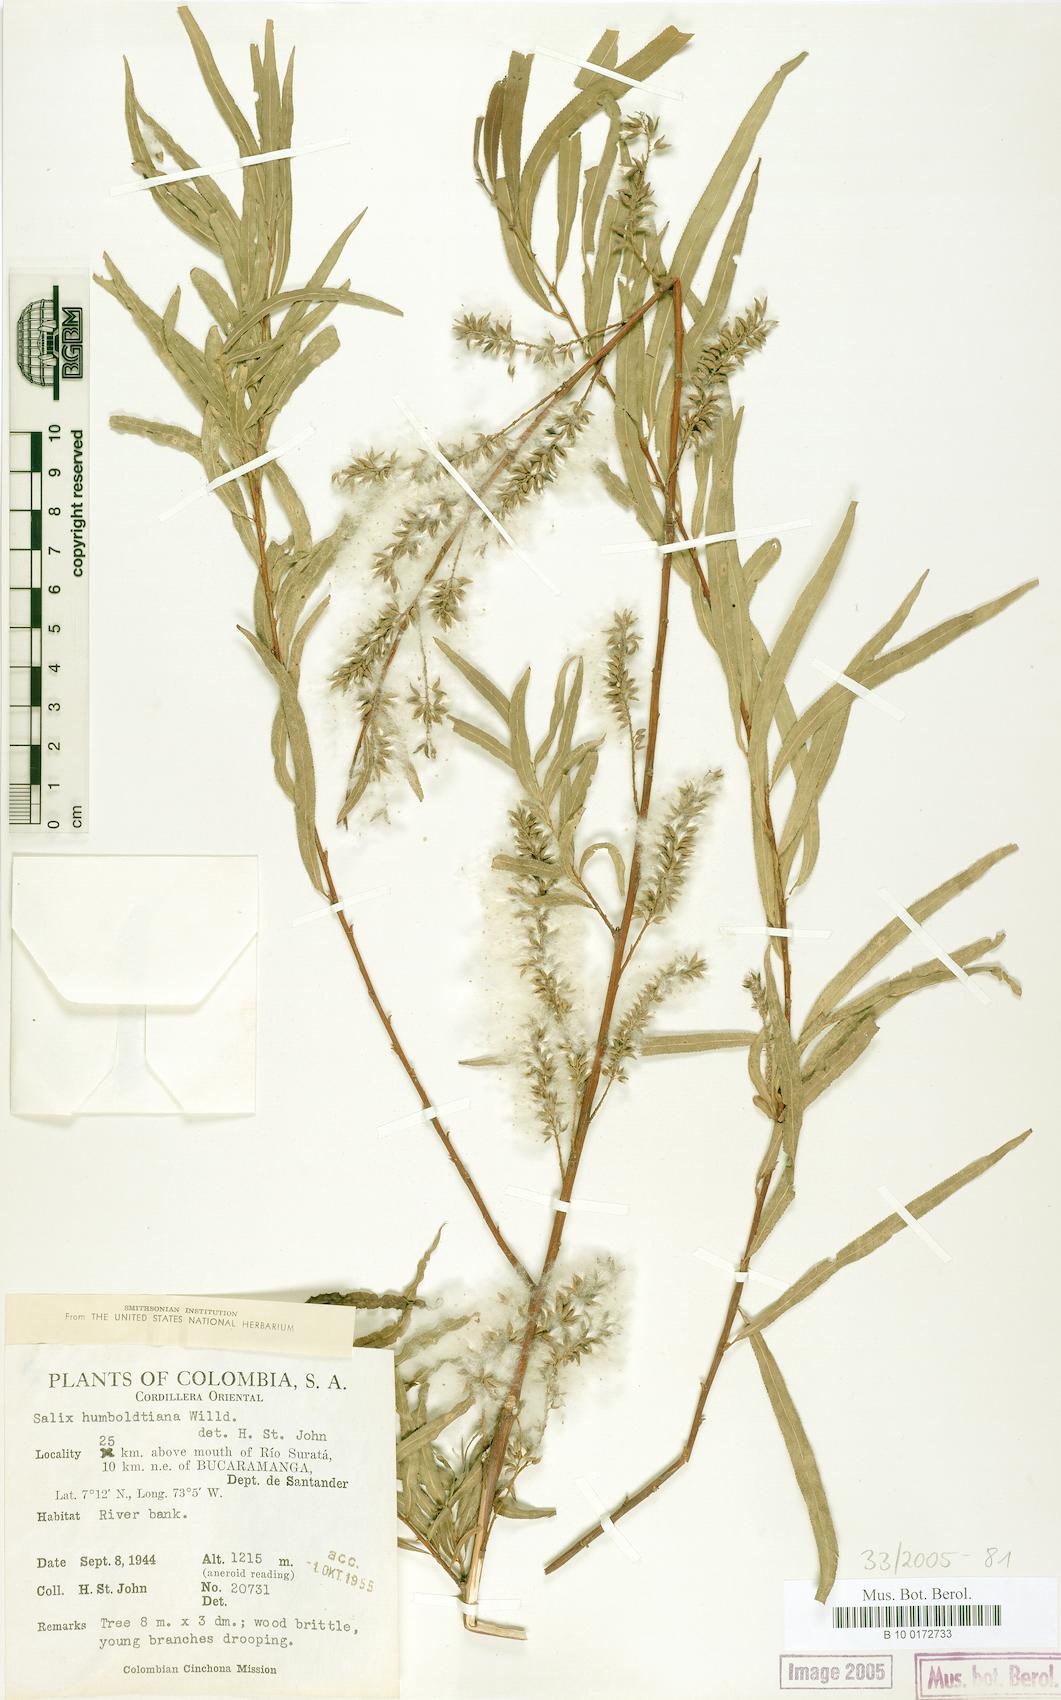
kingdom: Plantae
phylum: Tracheophyta
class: Magnoliopsida
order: Malpighiales
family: Salicaceae
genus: Salix
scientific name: Salix humboldtiana
